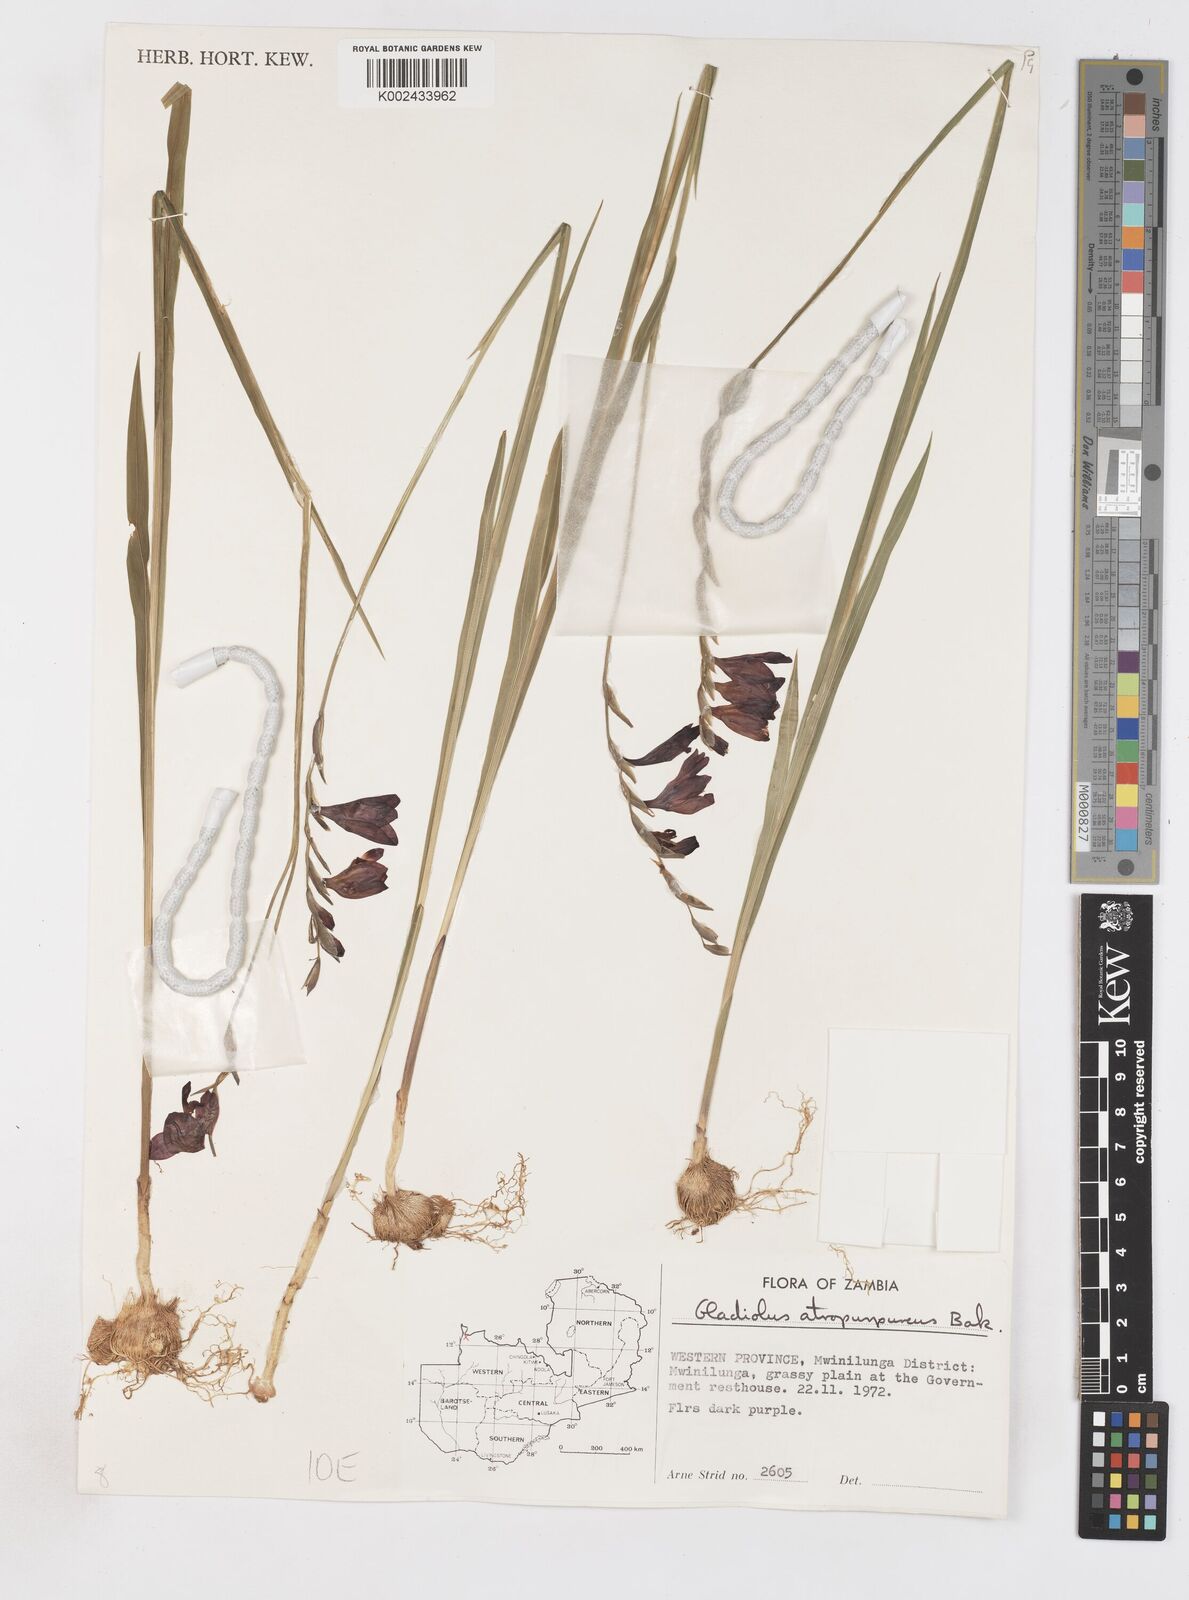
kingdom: Plantae
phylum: Tracheophyta
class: Liliopsida
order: Asparagales
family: Iridaceae
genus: Gladiolus
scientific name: Gladiolus atropurpureus
